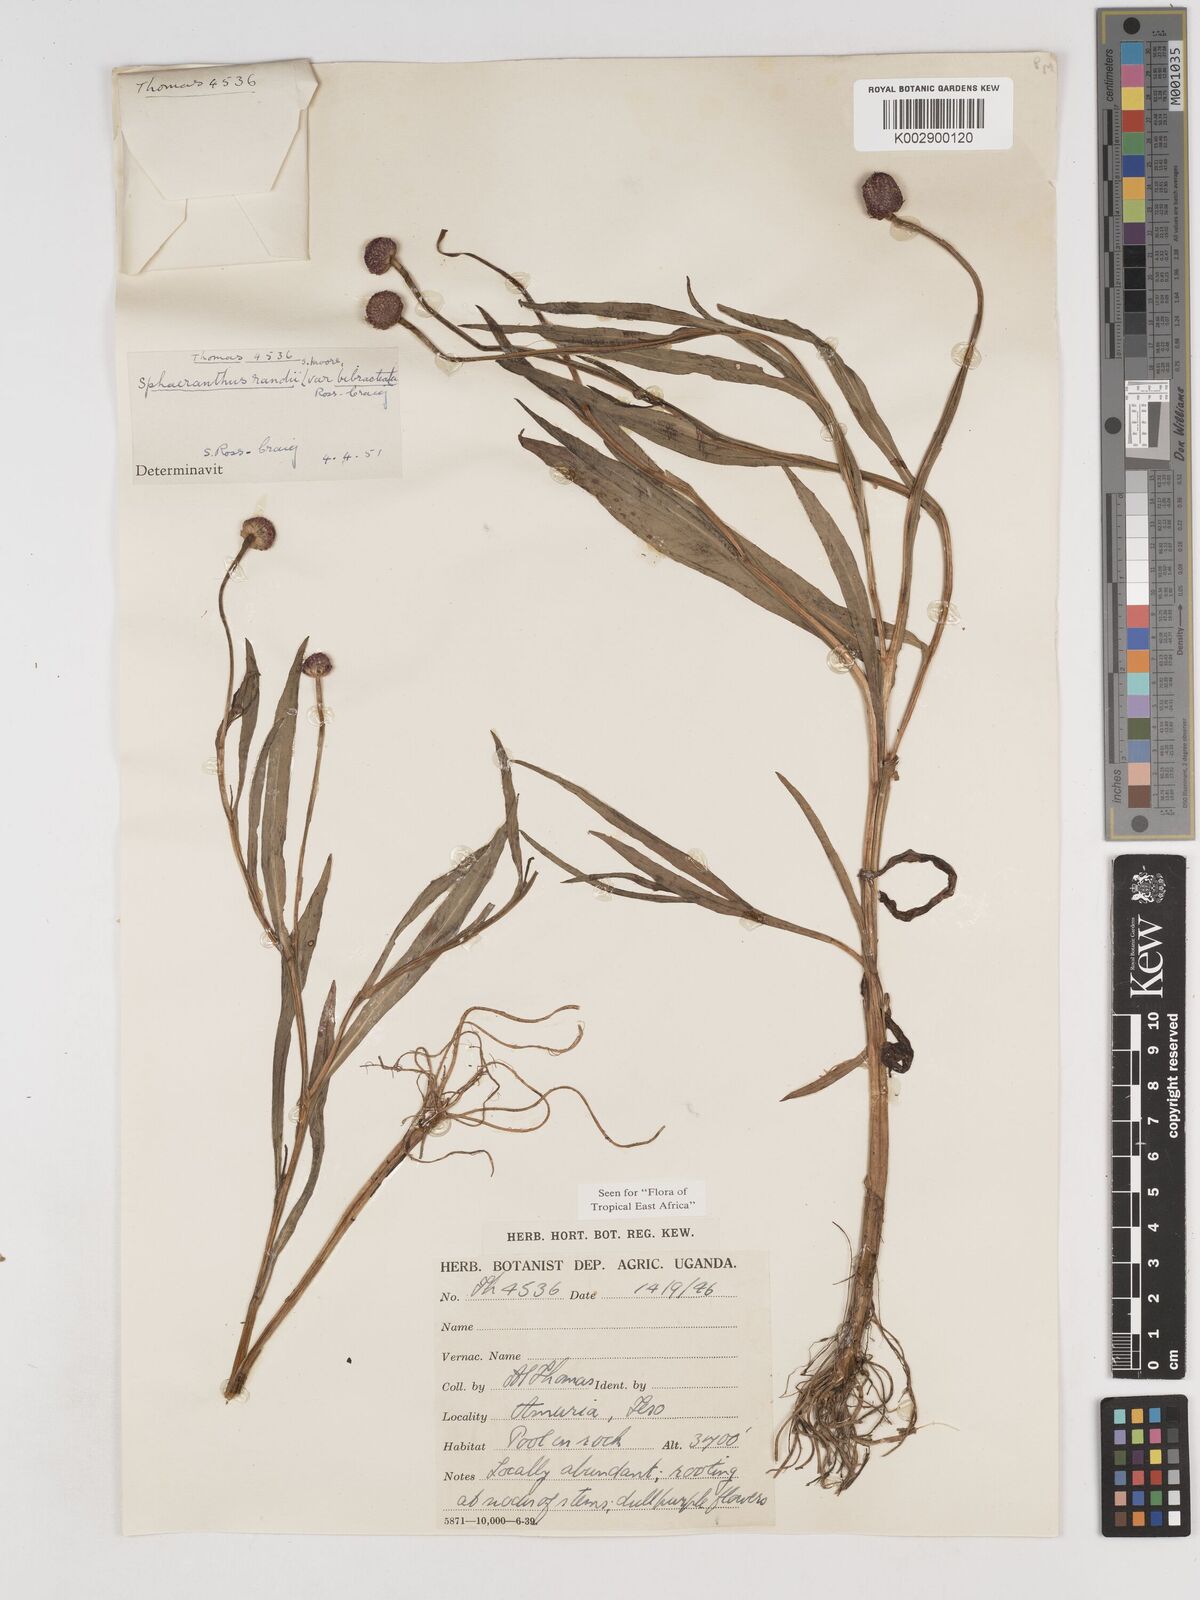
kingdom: Plantae
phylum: Tracheophyta
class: Magnoliopsida
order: Asterales
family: Asteraceae
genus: Sphaeranthus
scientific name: Sphaeranthus randii
